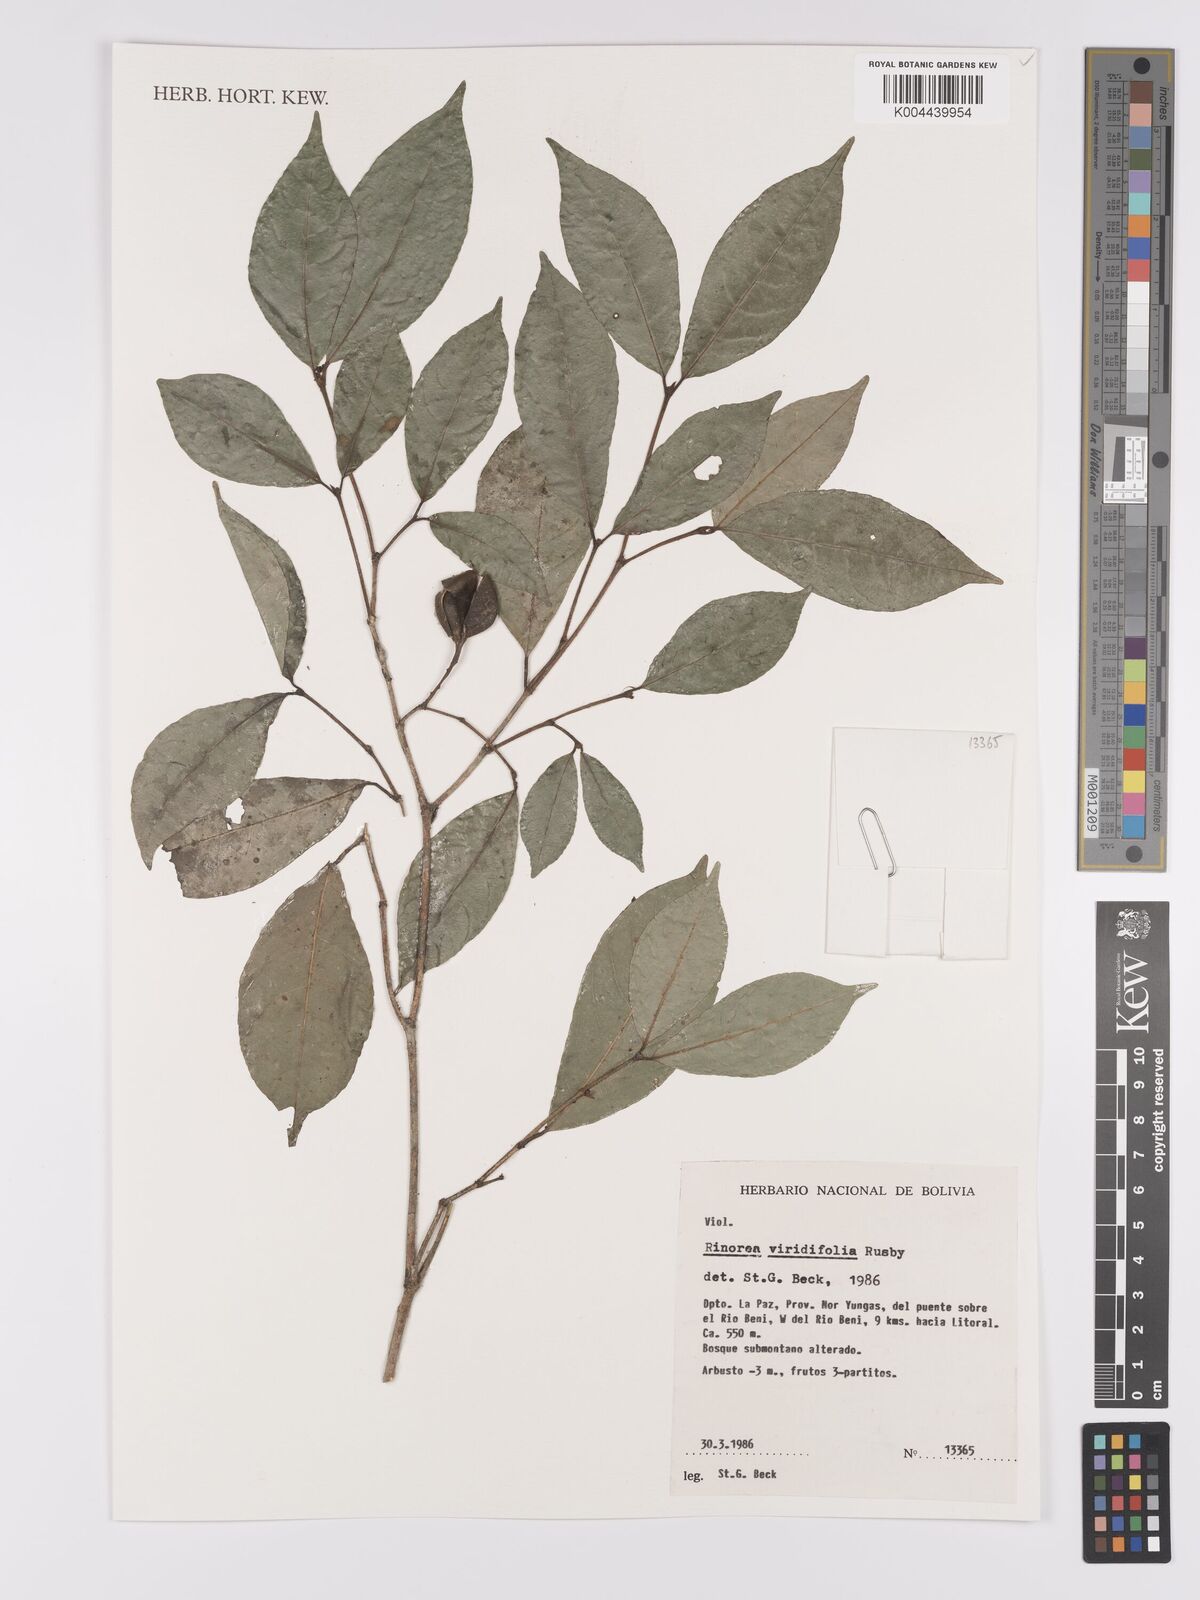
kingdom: Plantae
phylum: Tracheophyta
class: Magnoliopsida
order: Malpighiales
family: Violaceae
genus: Rinorea
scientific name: Rinorea viridifolia
